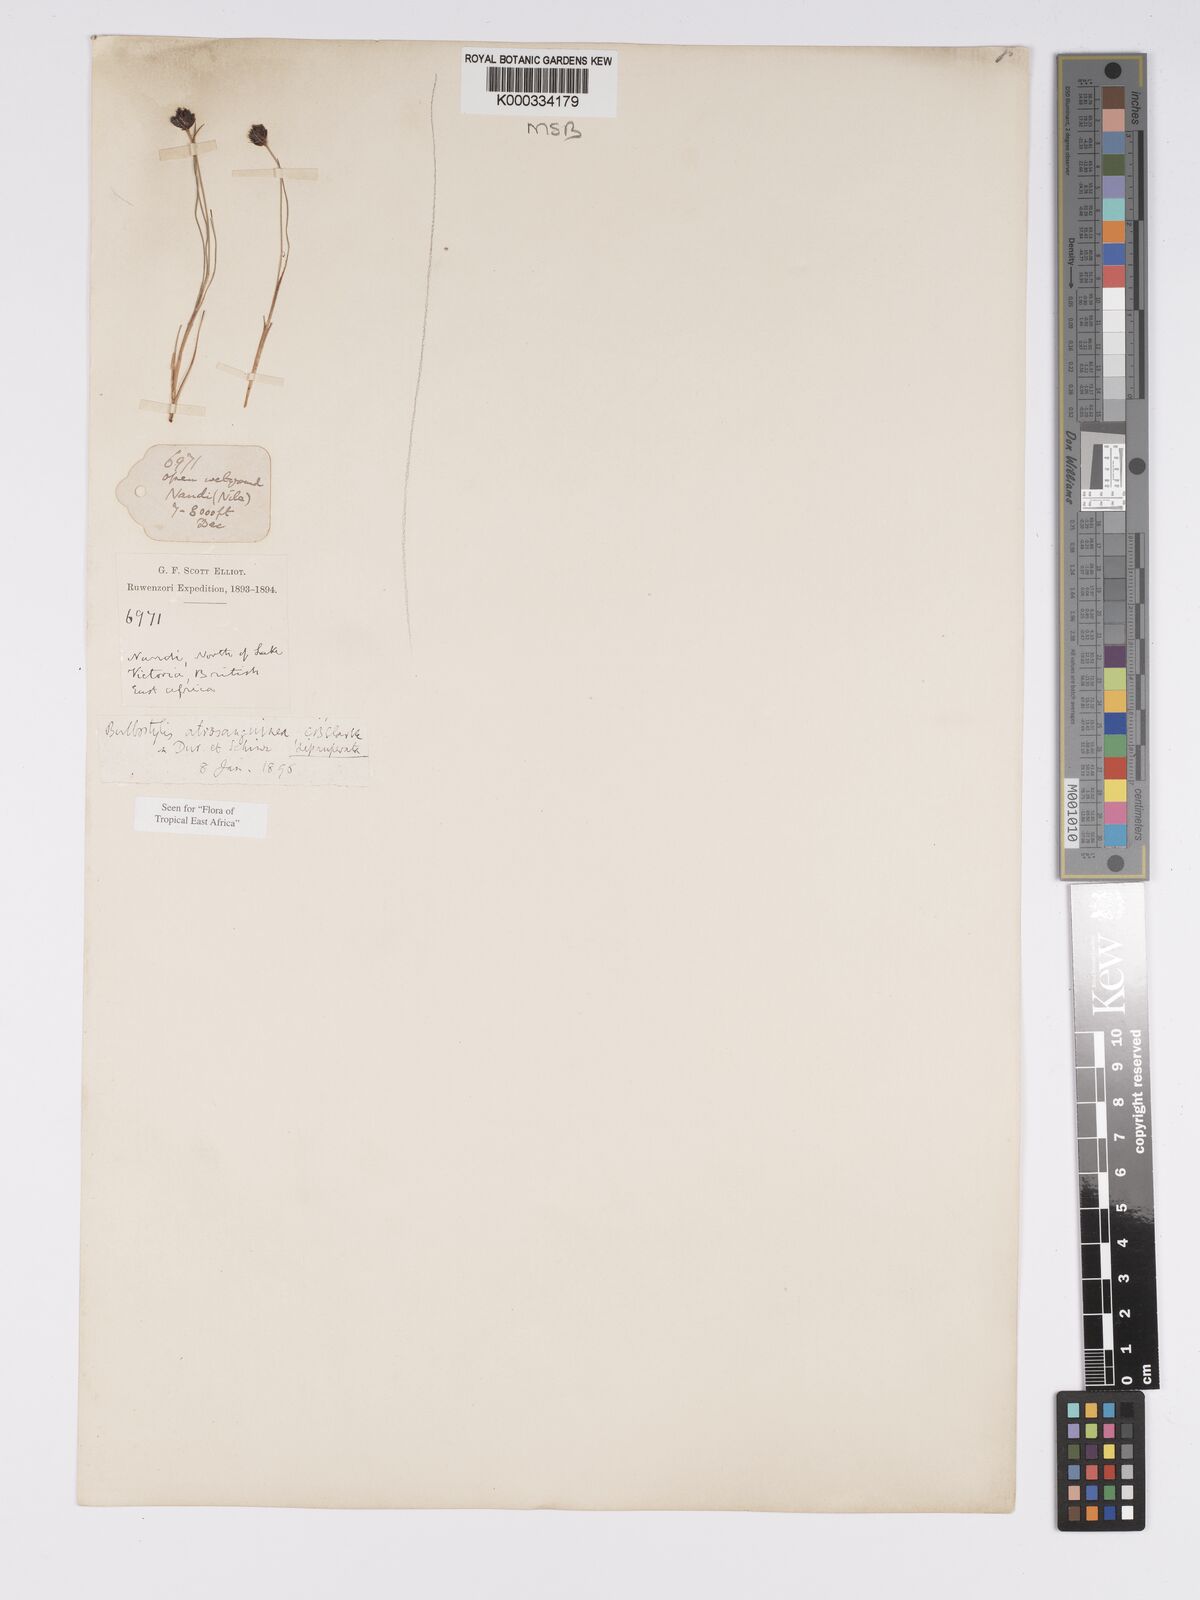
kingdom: Plantae
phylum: Tracheophyta
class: Liliopsida
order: Poales
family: Cyperaceae
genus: Bulbostylis
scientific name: Bulbostylis atrosanguinea
